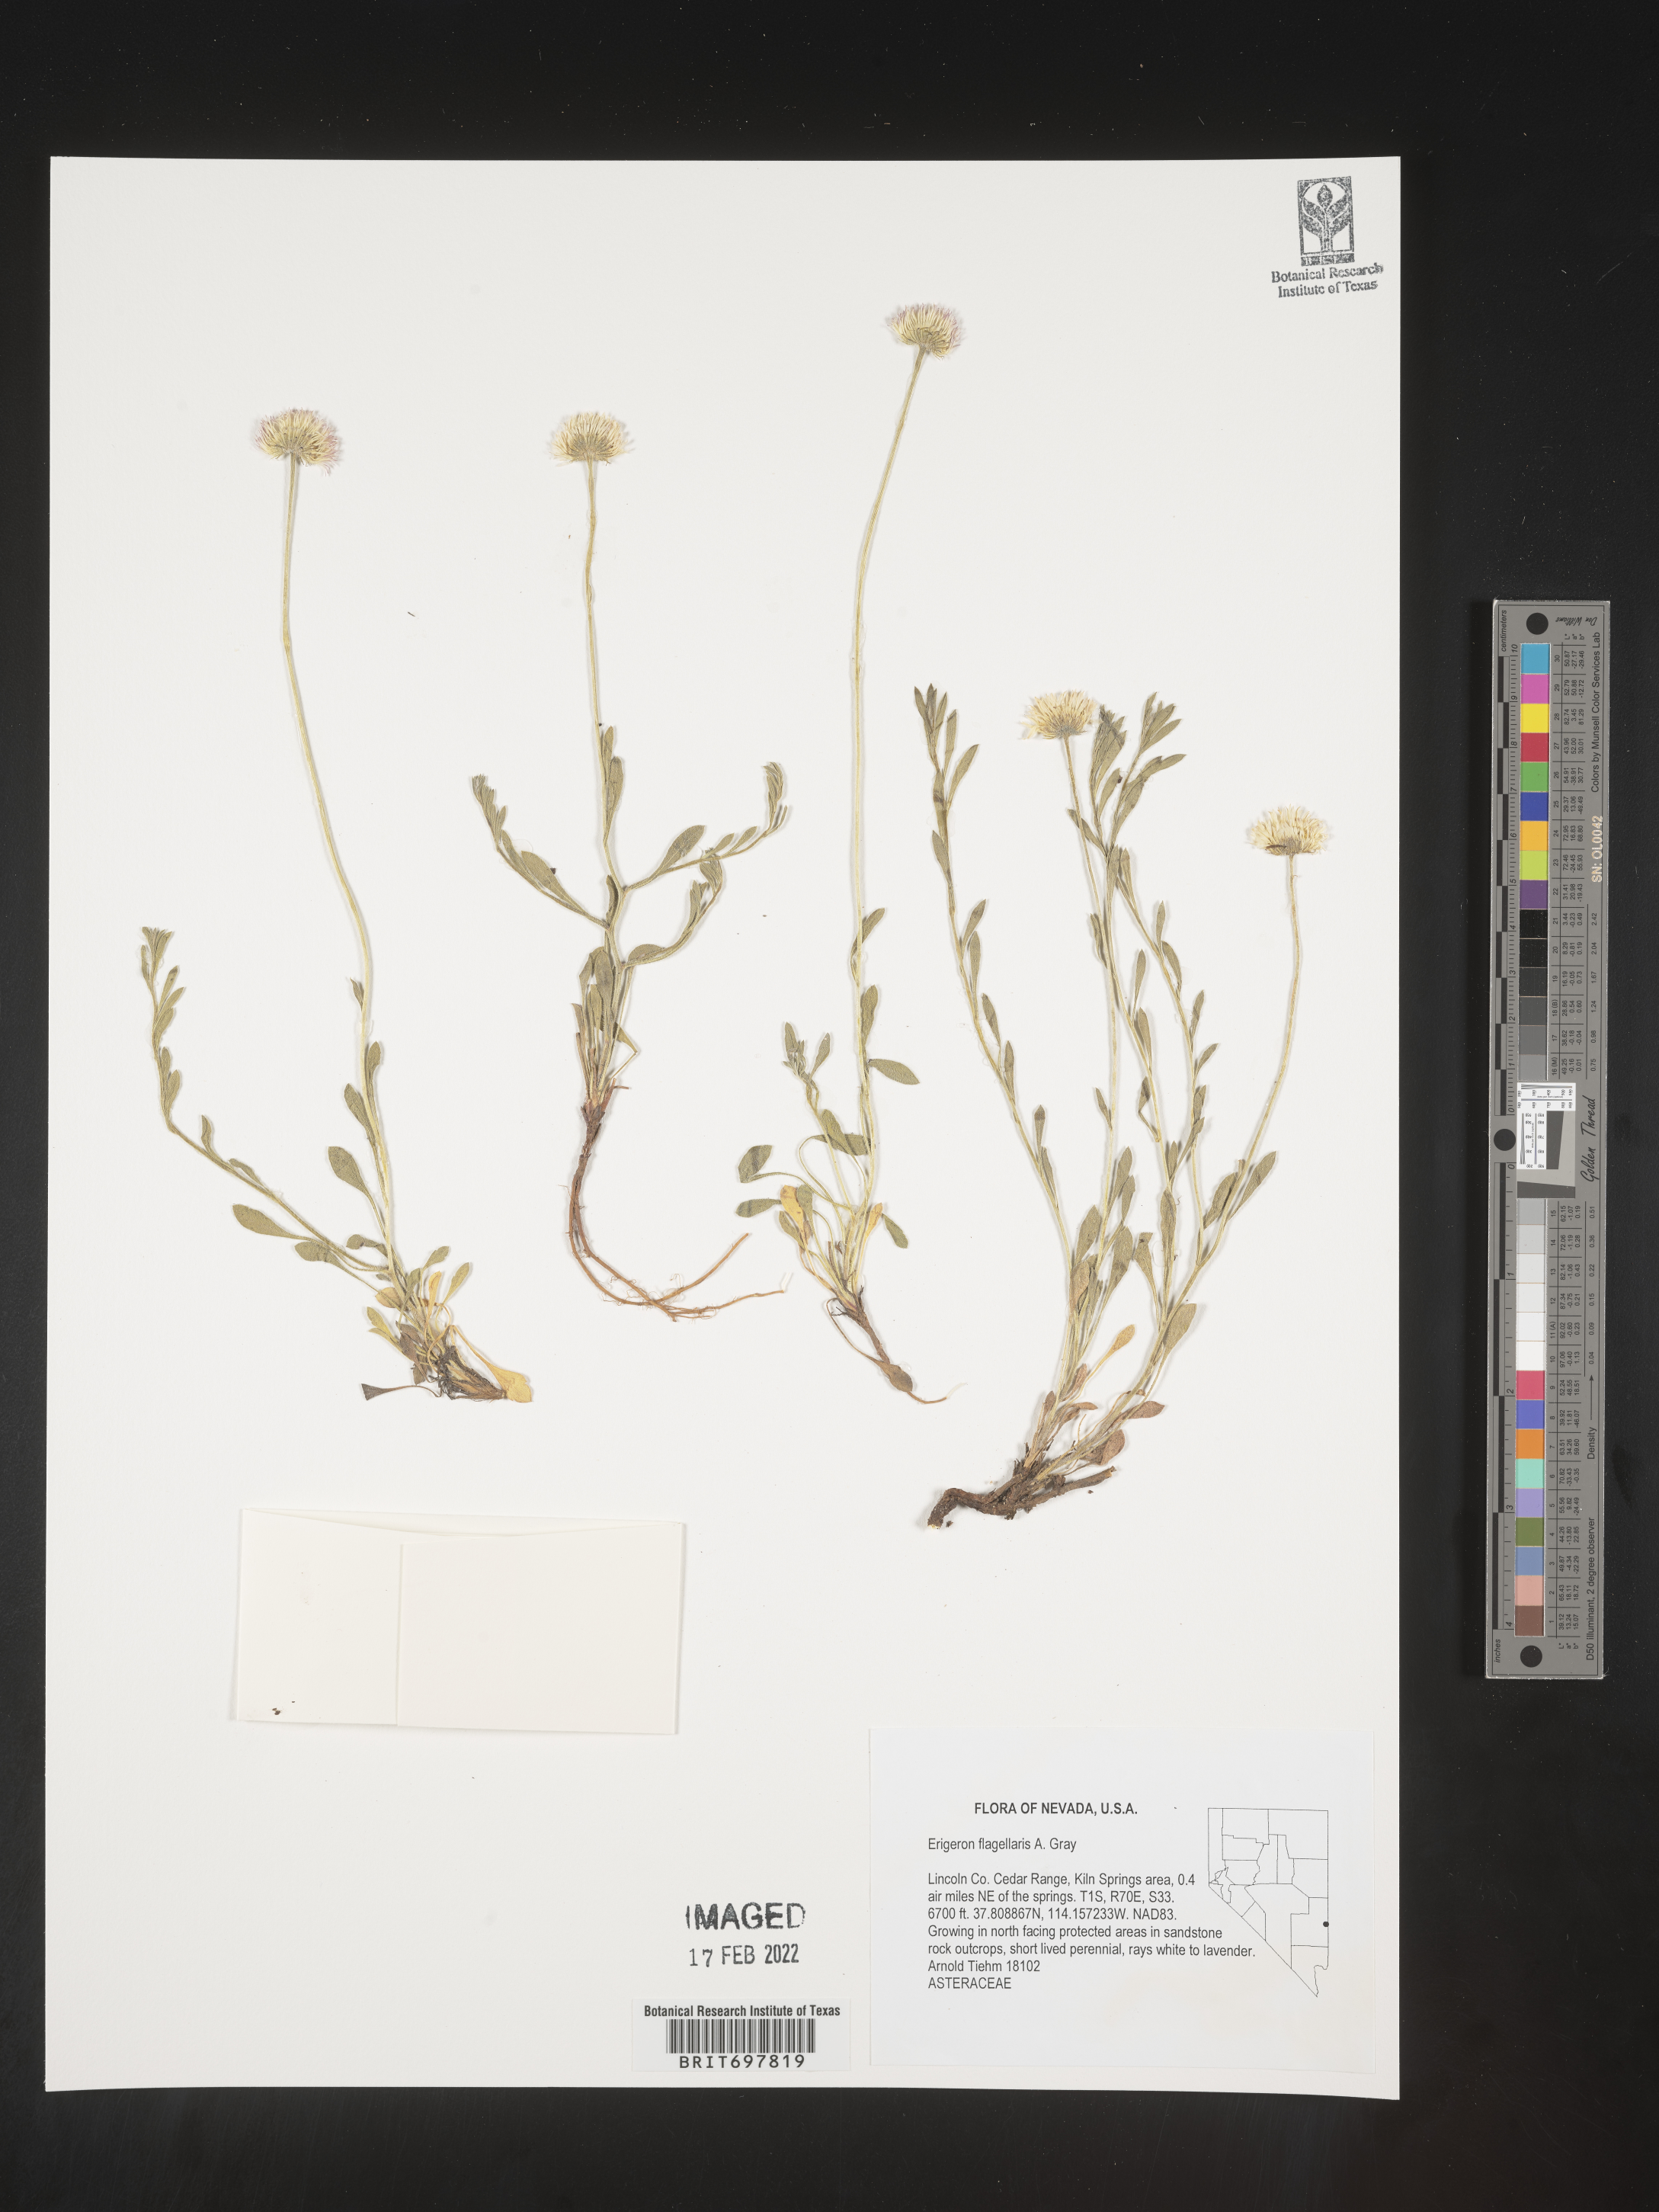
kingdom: Plantae
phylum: Tracheophyta
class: Magnoliopsida
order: Asterales
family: Asteraceae
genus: Erigeron
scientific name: Erigeron flagellaris
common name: Running fleabane
